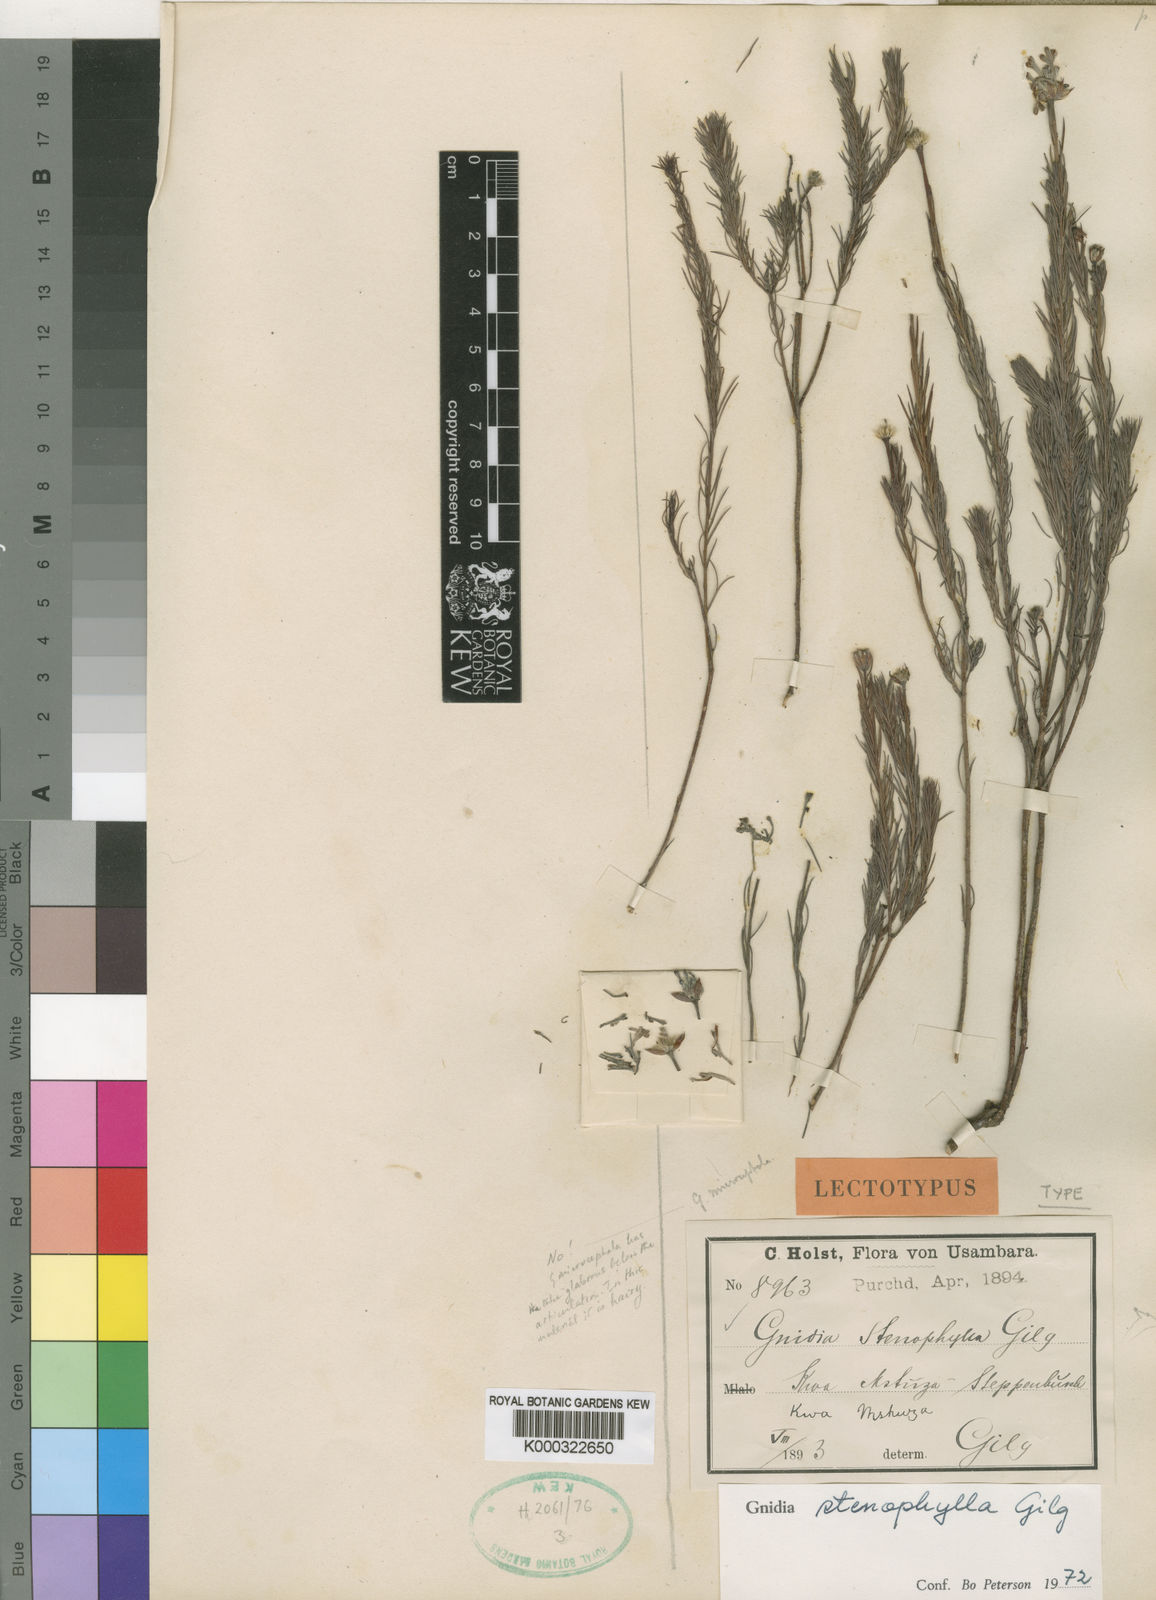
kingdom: Plantae
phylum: Tracheophyta
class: Magnoliopsida
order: Malvales
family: Thymelaeaceae
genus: Gnidia
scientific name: Gnidia stenophylla
